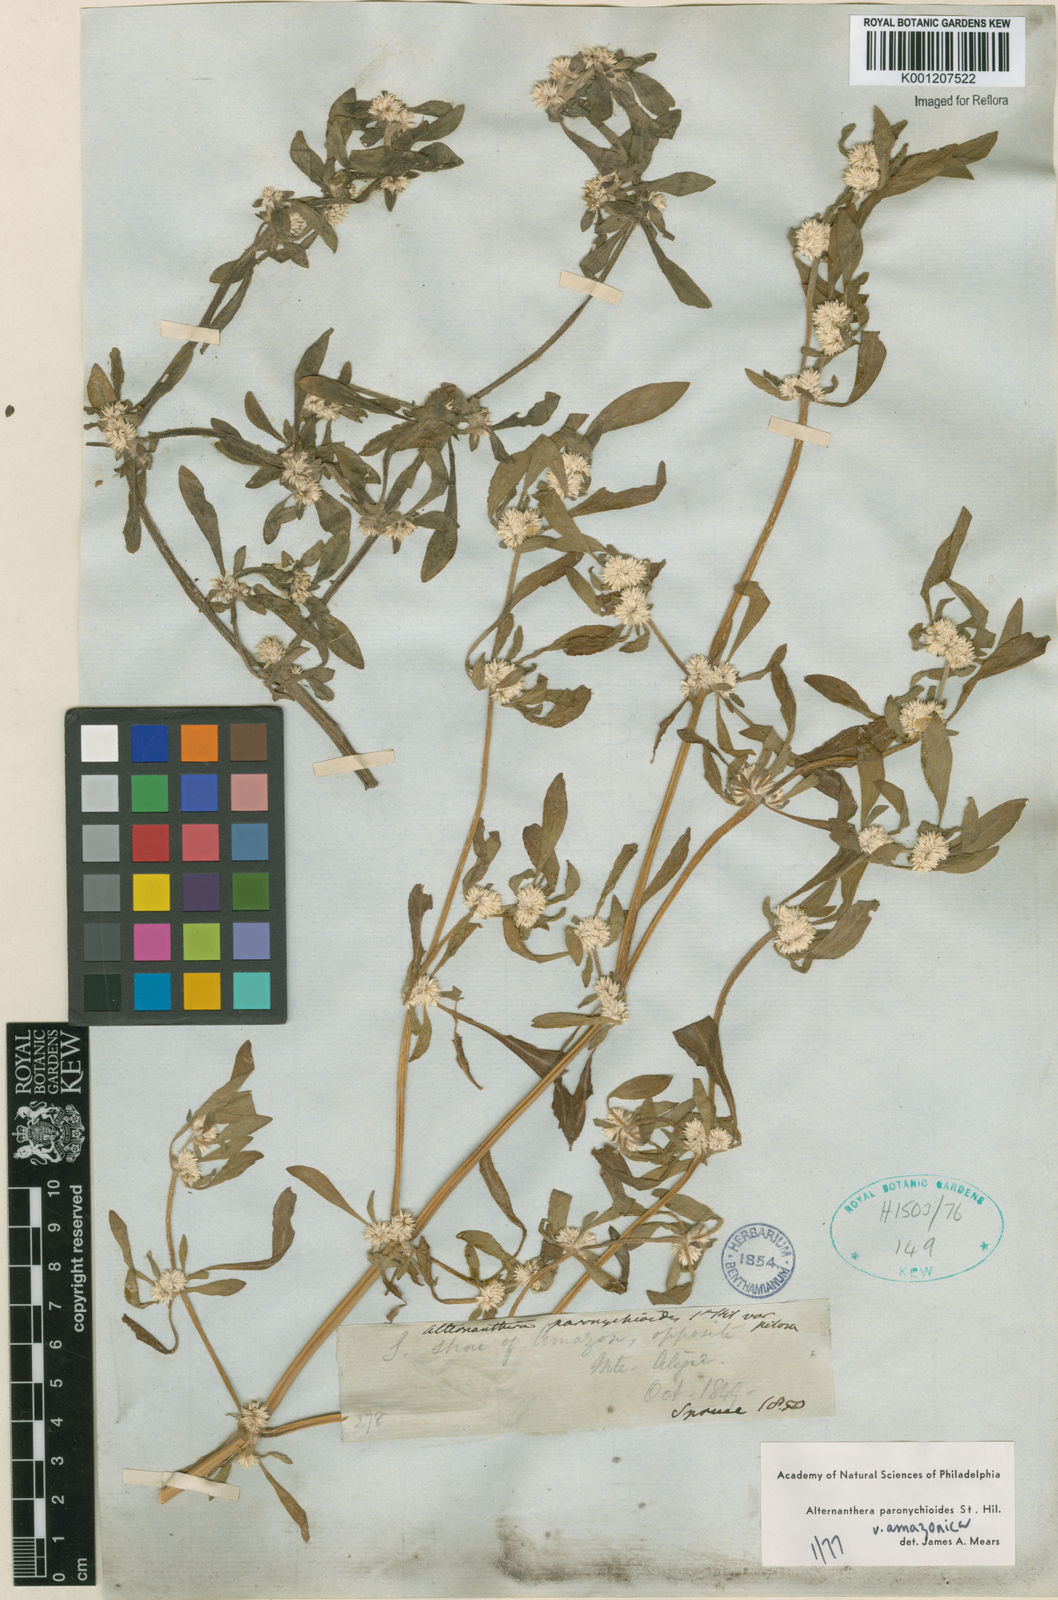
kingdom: Plantae
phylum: Tracheophyta
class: Magnoliopsida
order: Caryophyllales
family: Amaranthaceae
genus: Alternanthera
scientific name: Alternanthera paronychioides
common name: Smooth joyweed
